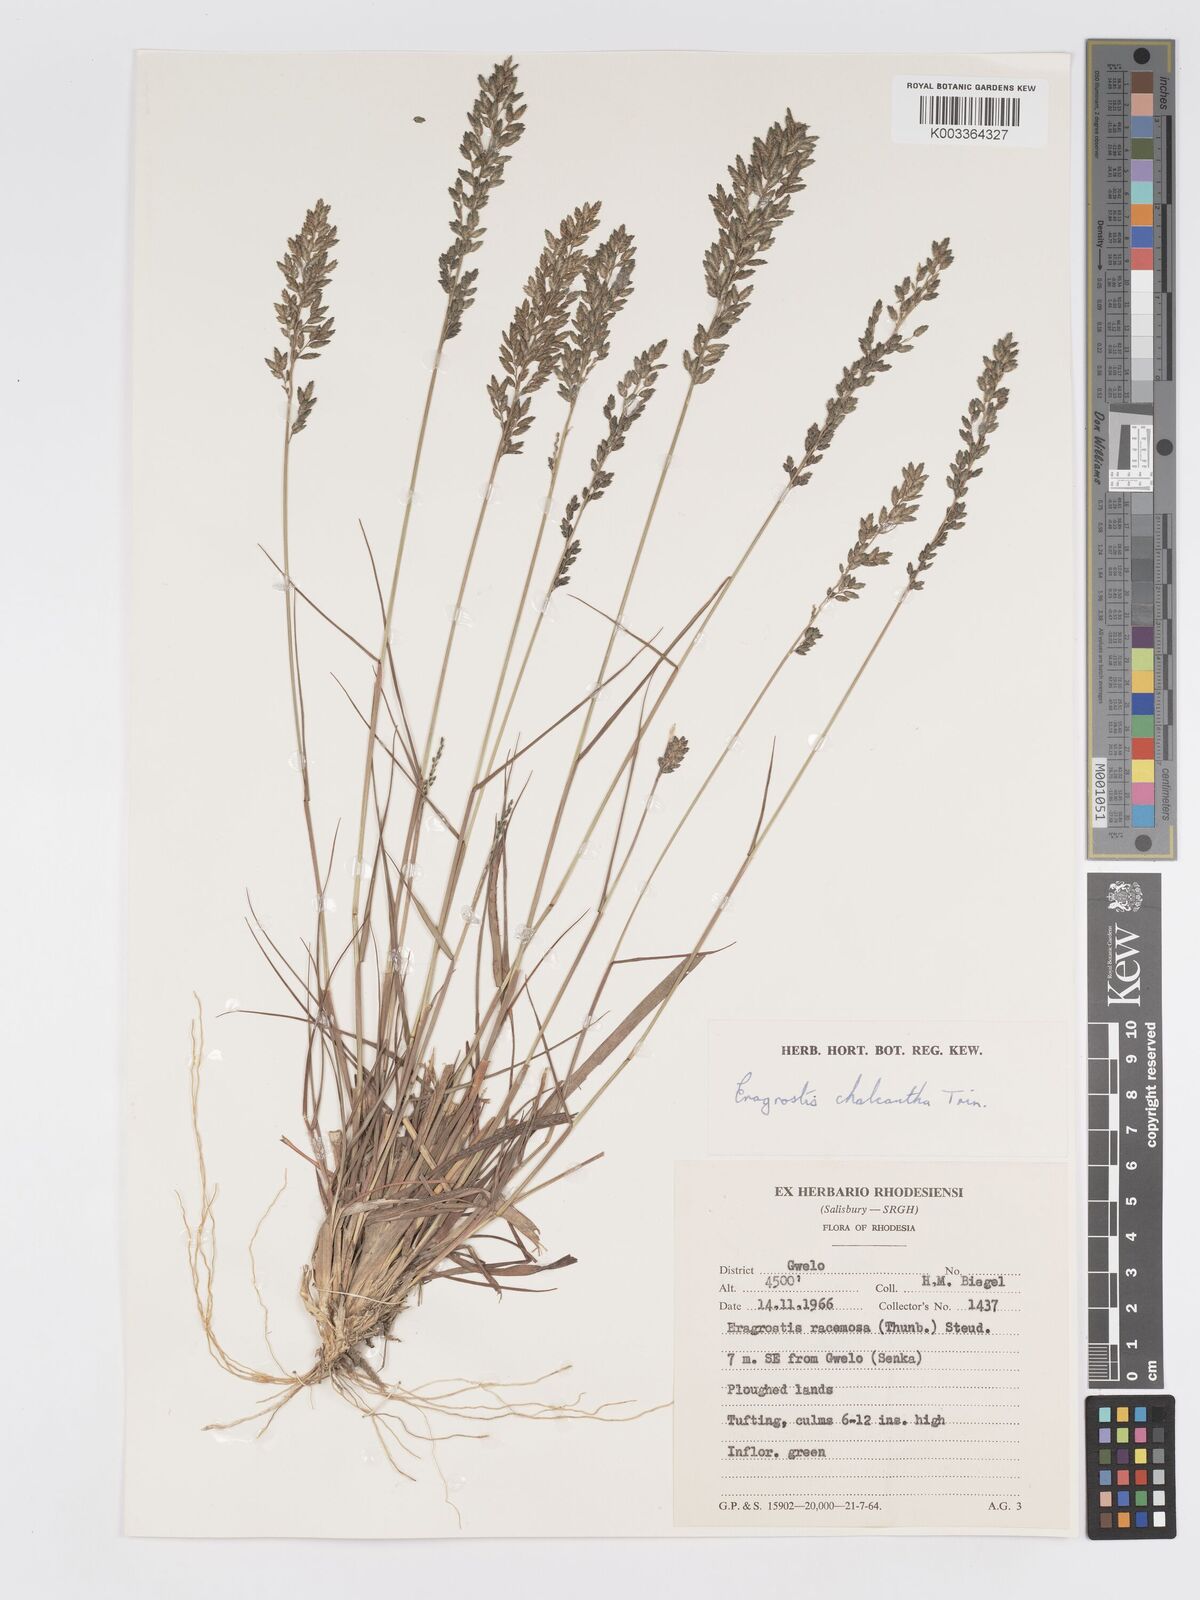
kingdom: Plantae
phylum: Tracheophyta
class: Liliopsida
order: Poales
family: Poaceae
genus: Eragrostis
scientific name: Eragrostis racemosa
